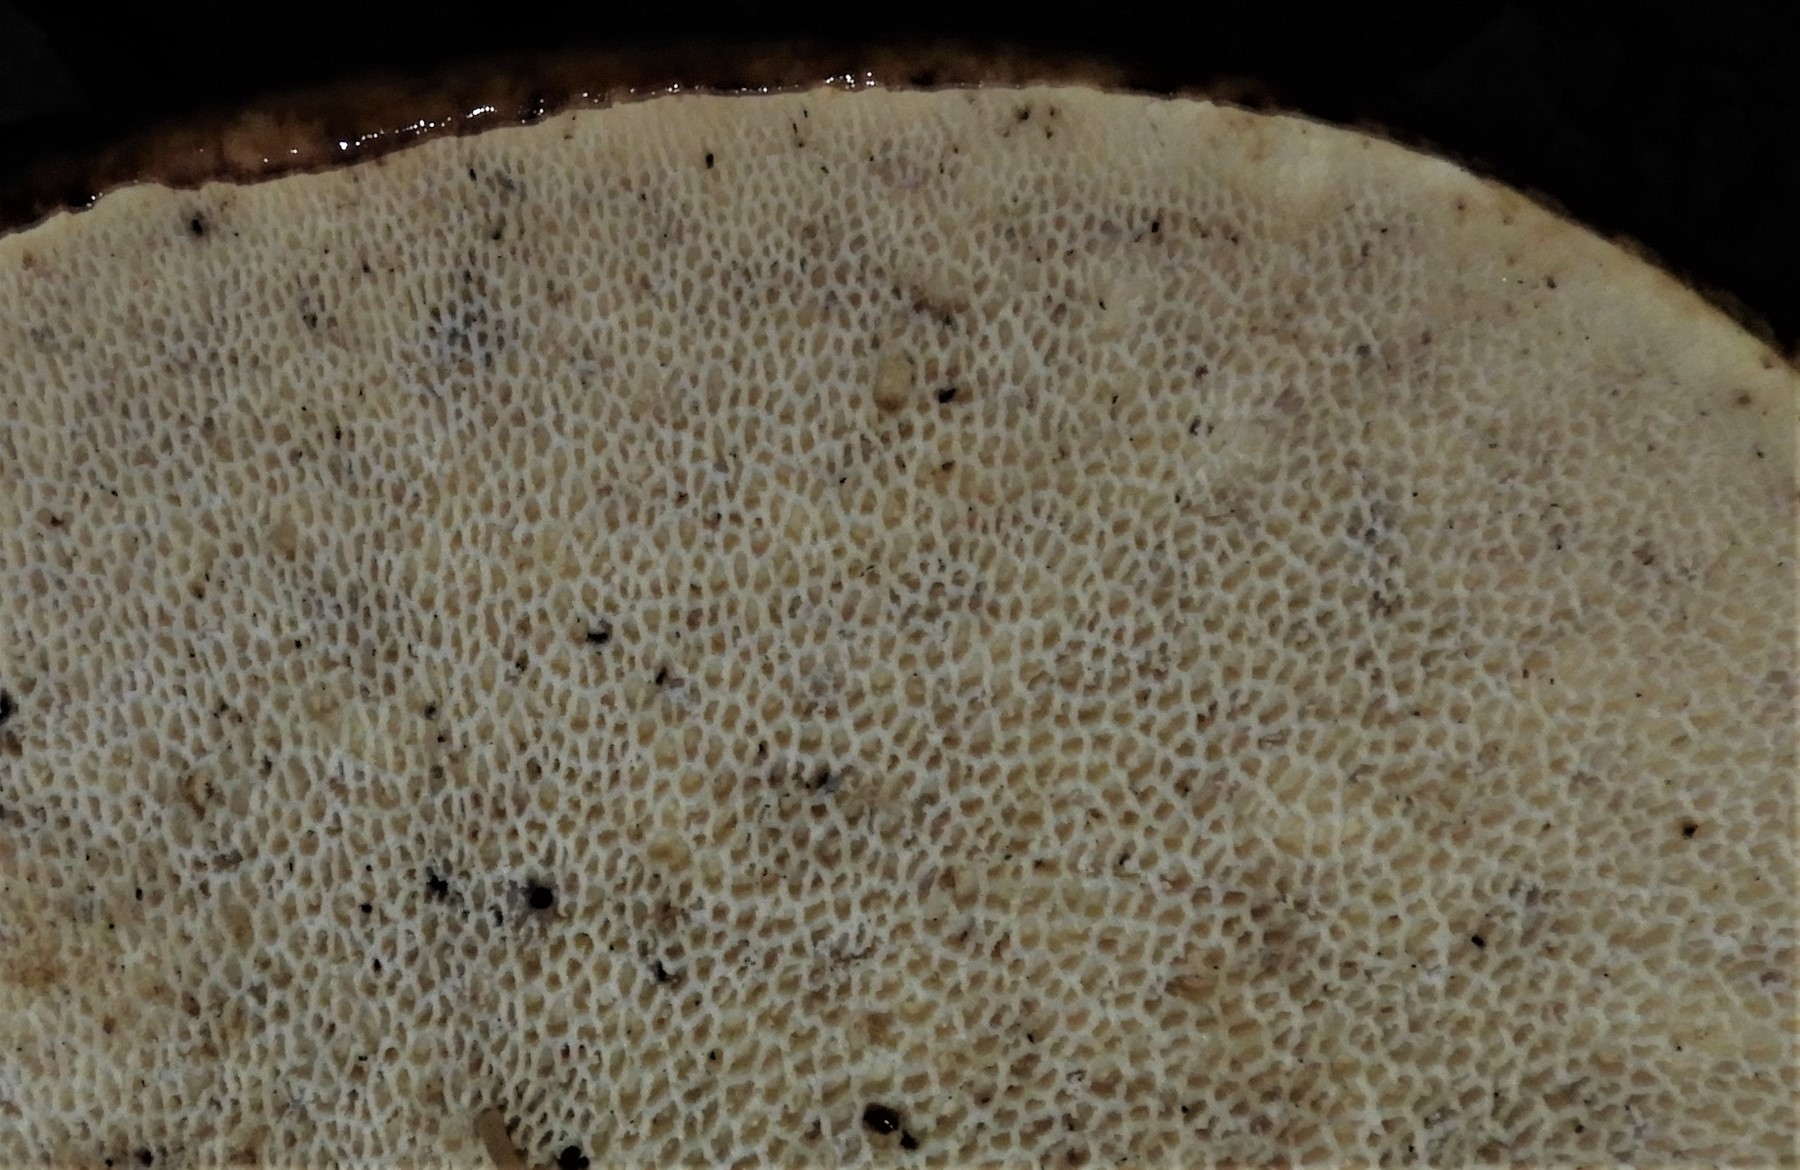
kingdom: Fungi
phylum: Basidiomycota
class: Agaricomycetes
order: Polyporales
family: Polyporaceae
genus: Cerioporus
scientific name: Cerioporus squamosus
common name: skællet stilkporesvamp
